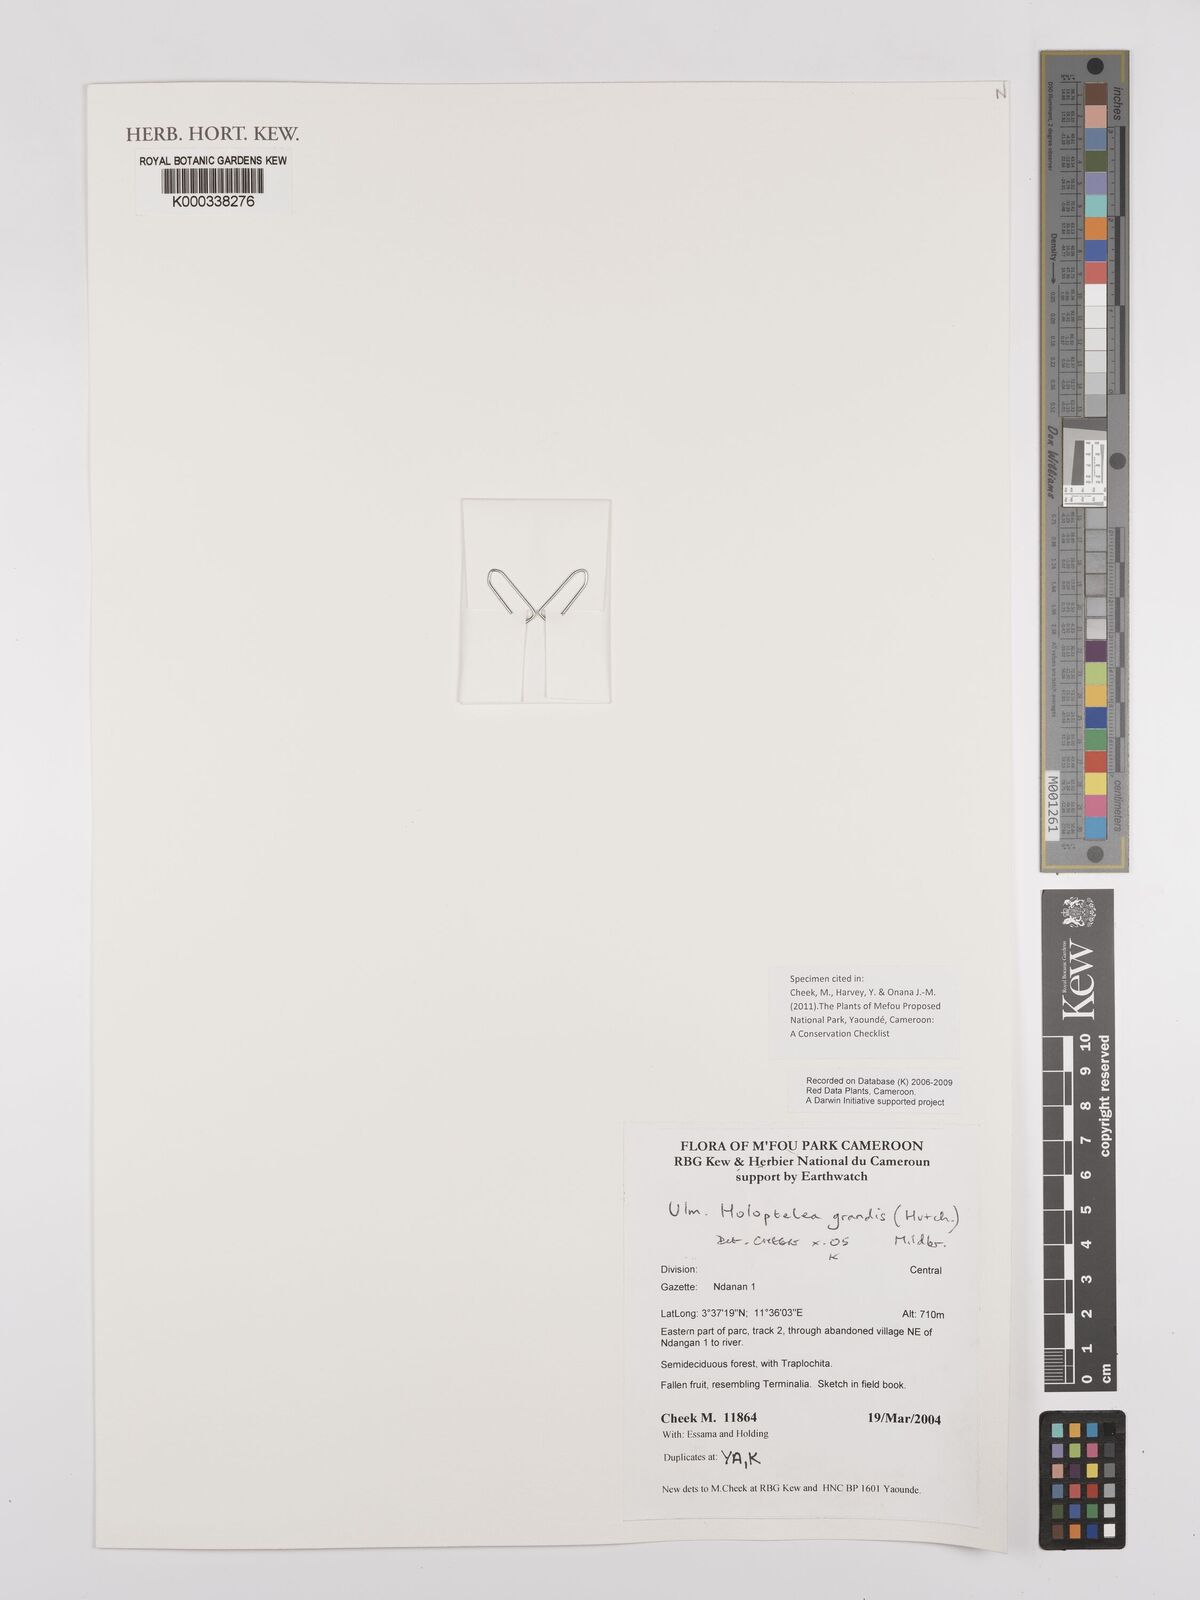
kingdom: Plantae
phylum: Tracheophyta
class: Magnoliopsida
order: Rosales
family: Ulmaceae
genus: Holoptelea
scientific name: Holoptelea grandis
